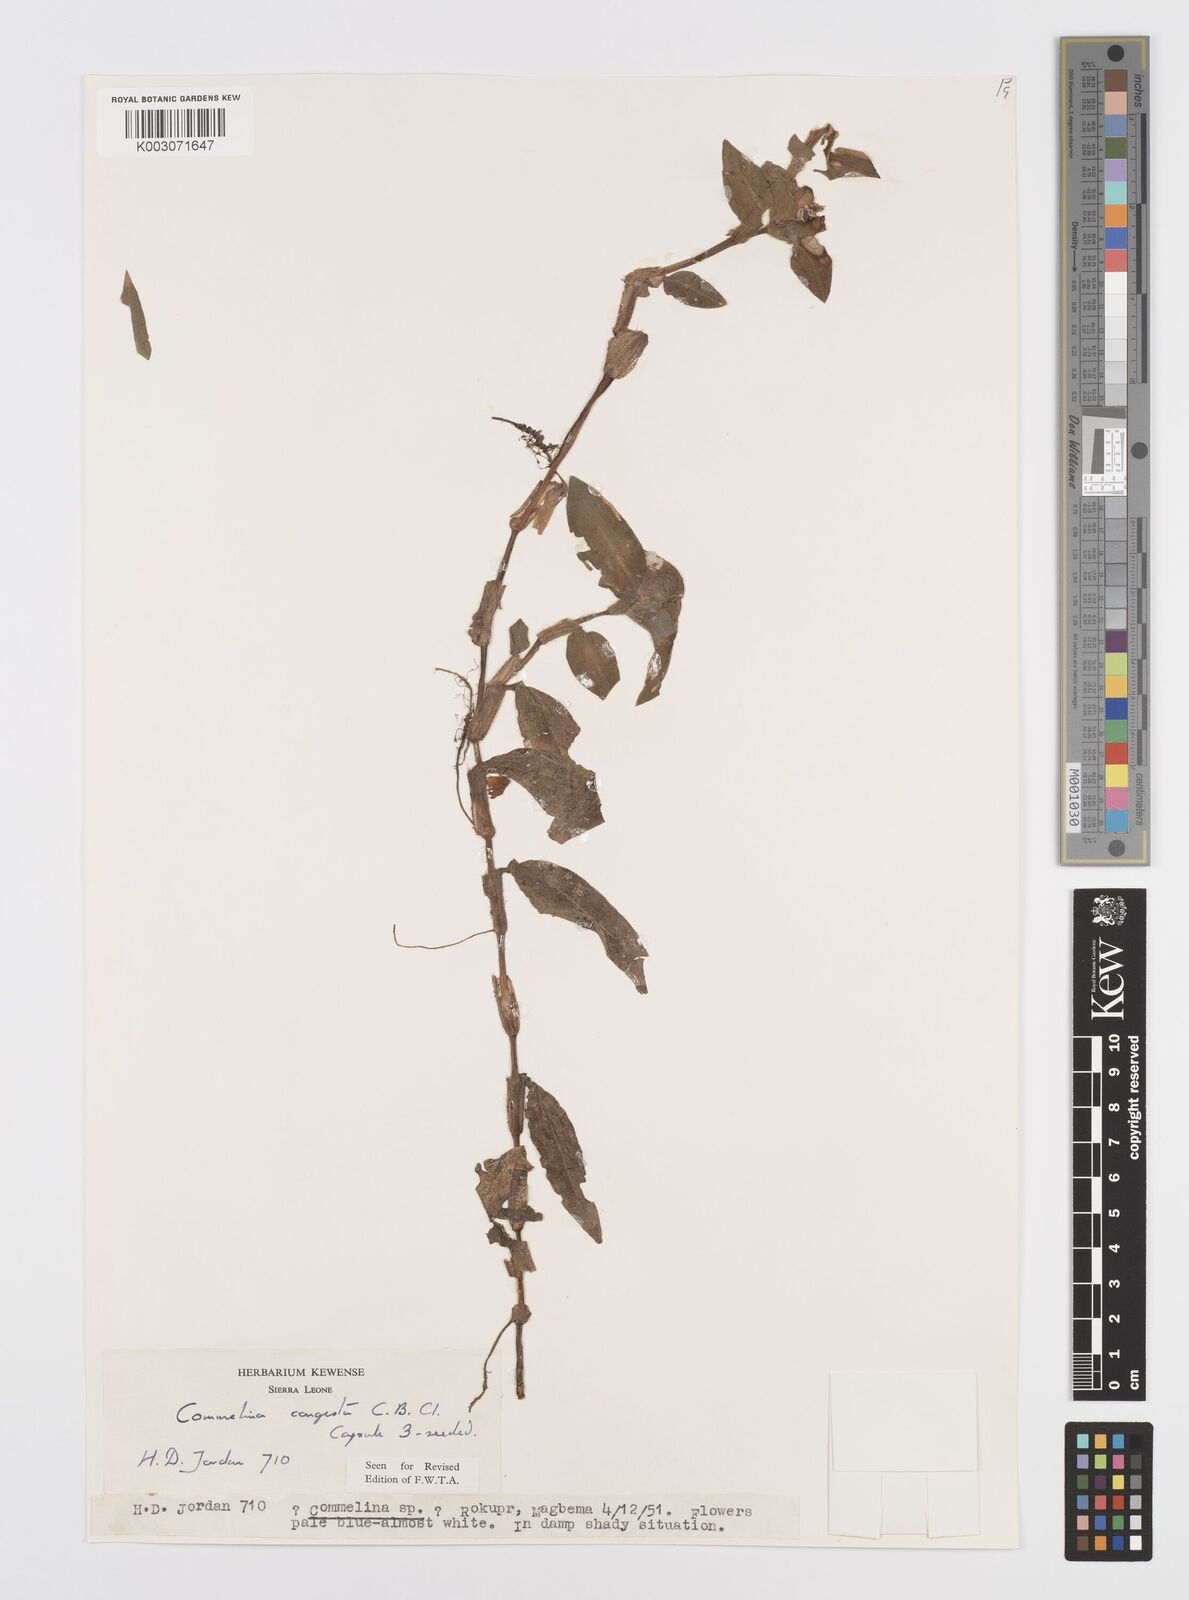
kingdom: Plantae
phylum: Tracheophyta
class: Liliopsida
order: Commelinales
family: Commelinaceae
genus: Commelina
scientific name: Commelina congesta
